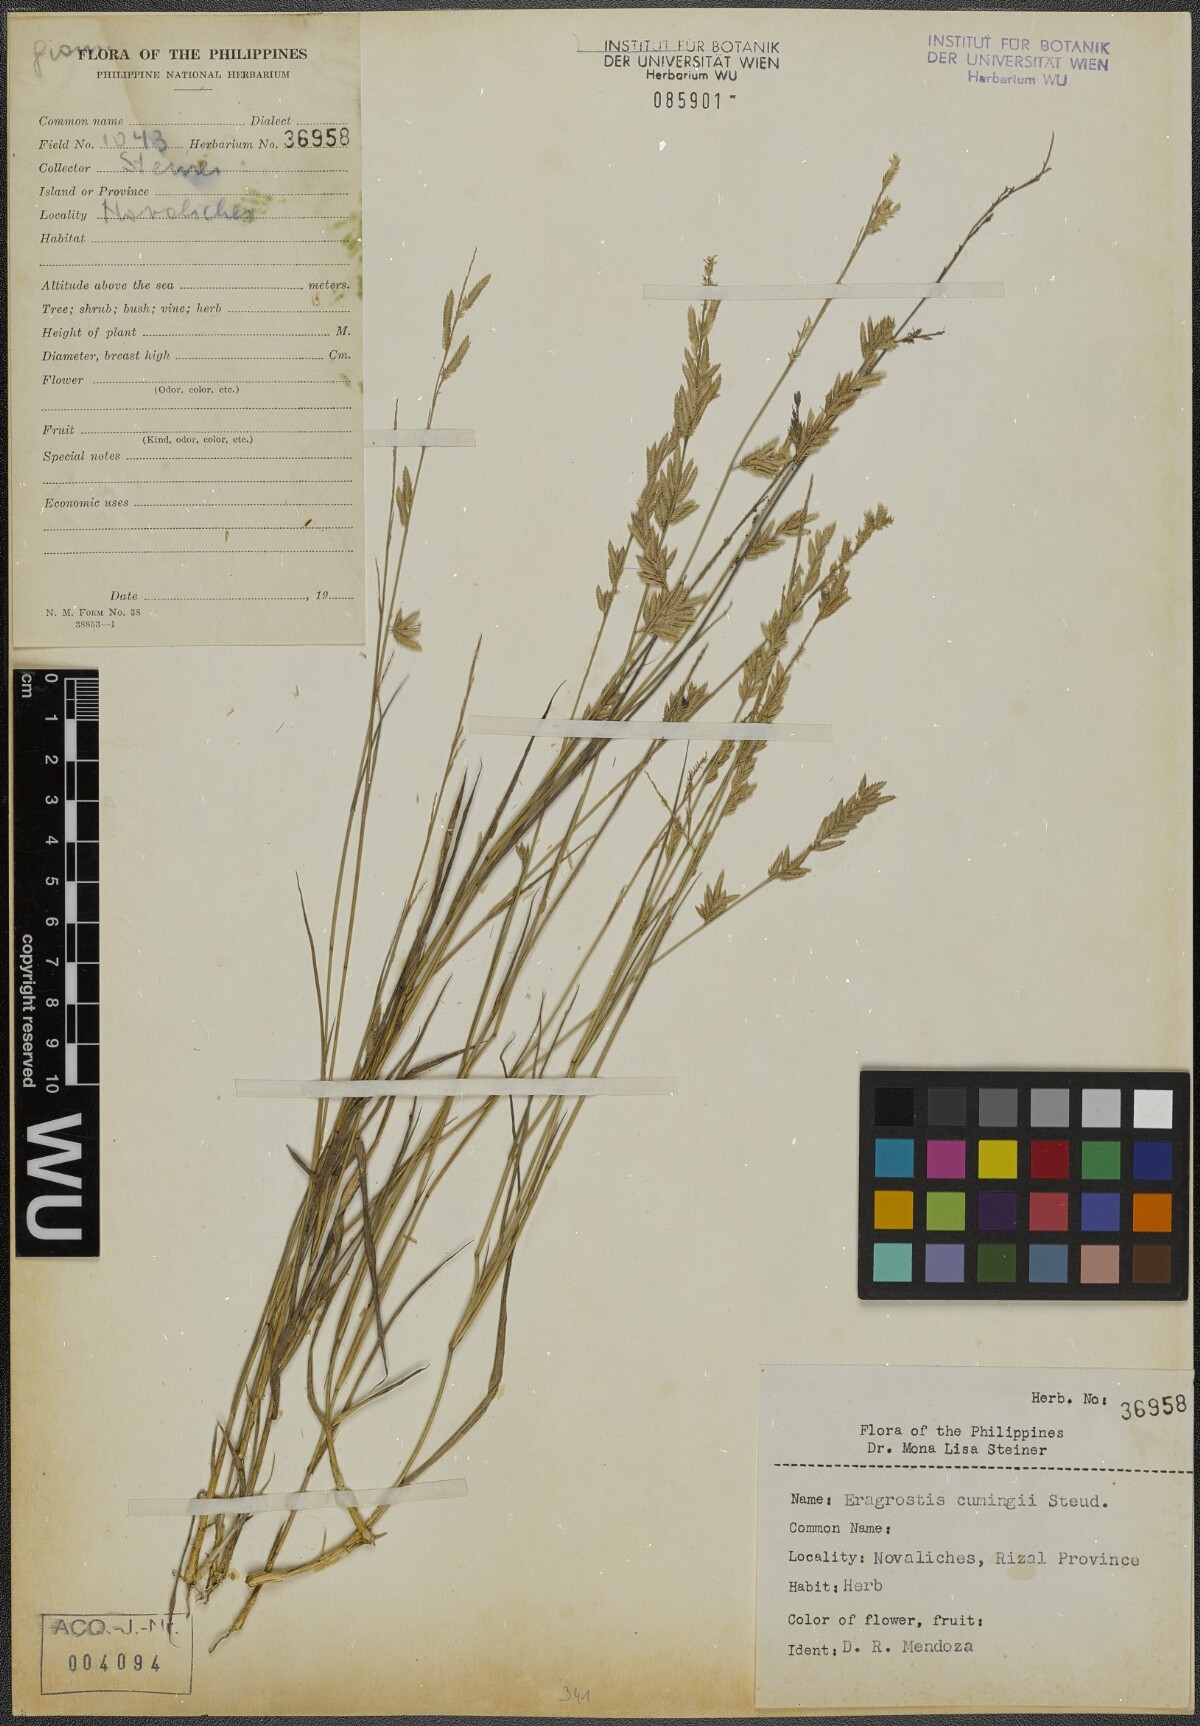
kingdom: Plantae
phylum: Tracheophyta
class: Liliopsida
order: Poales
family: Poaceae
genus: Eragrostis
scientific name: Eragrostis cumingii
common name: Cuming's lovegrass
